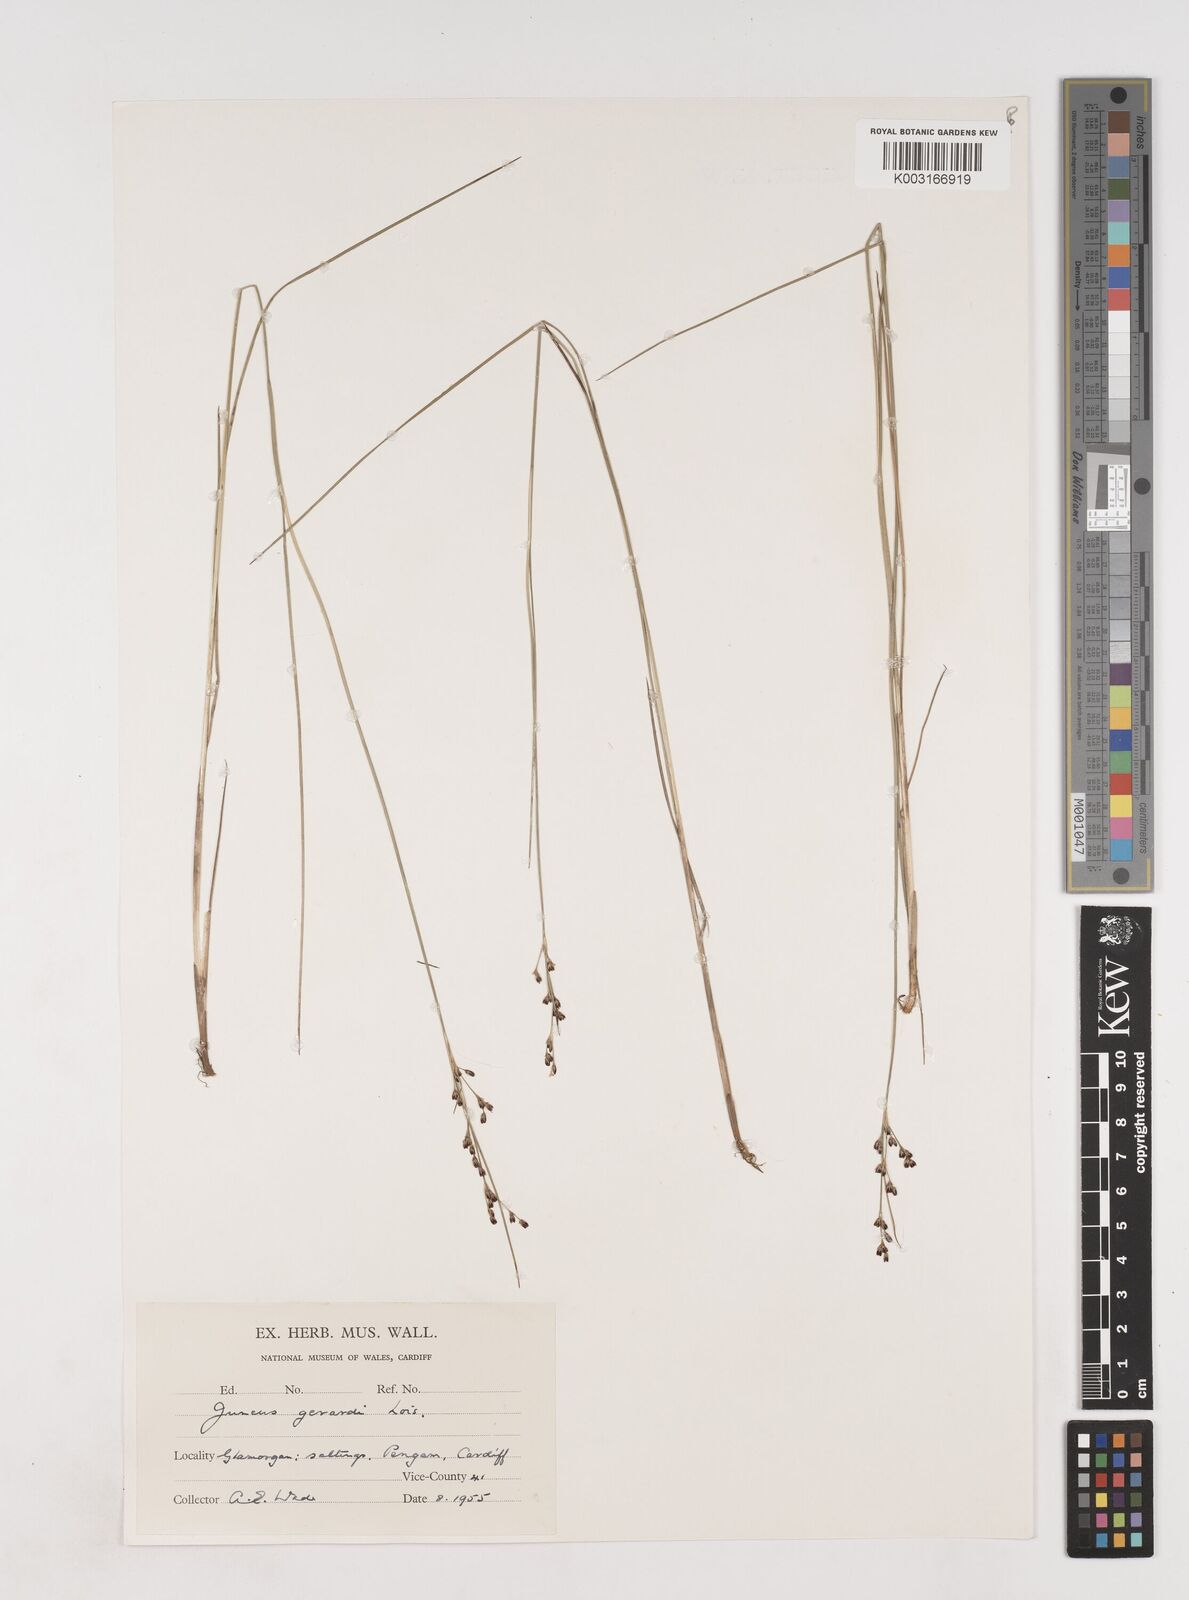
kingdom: Plantae
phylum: Tracheophyta
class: Liliopsida
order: Poales
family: Juncaceae
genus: Juncus
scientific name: Juncus gerardi
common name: Saltmarsh rush
